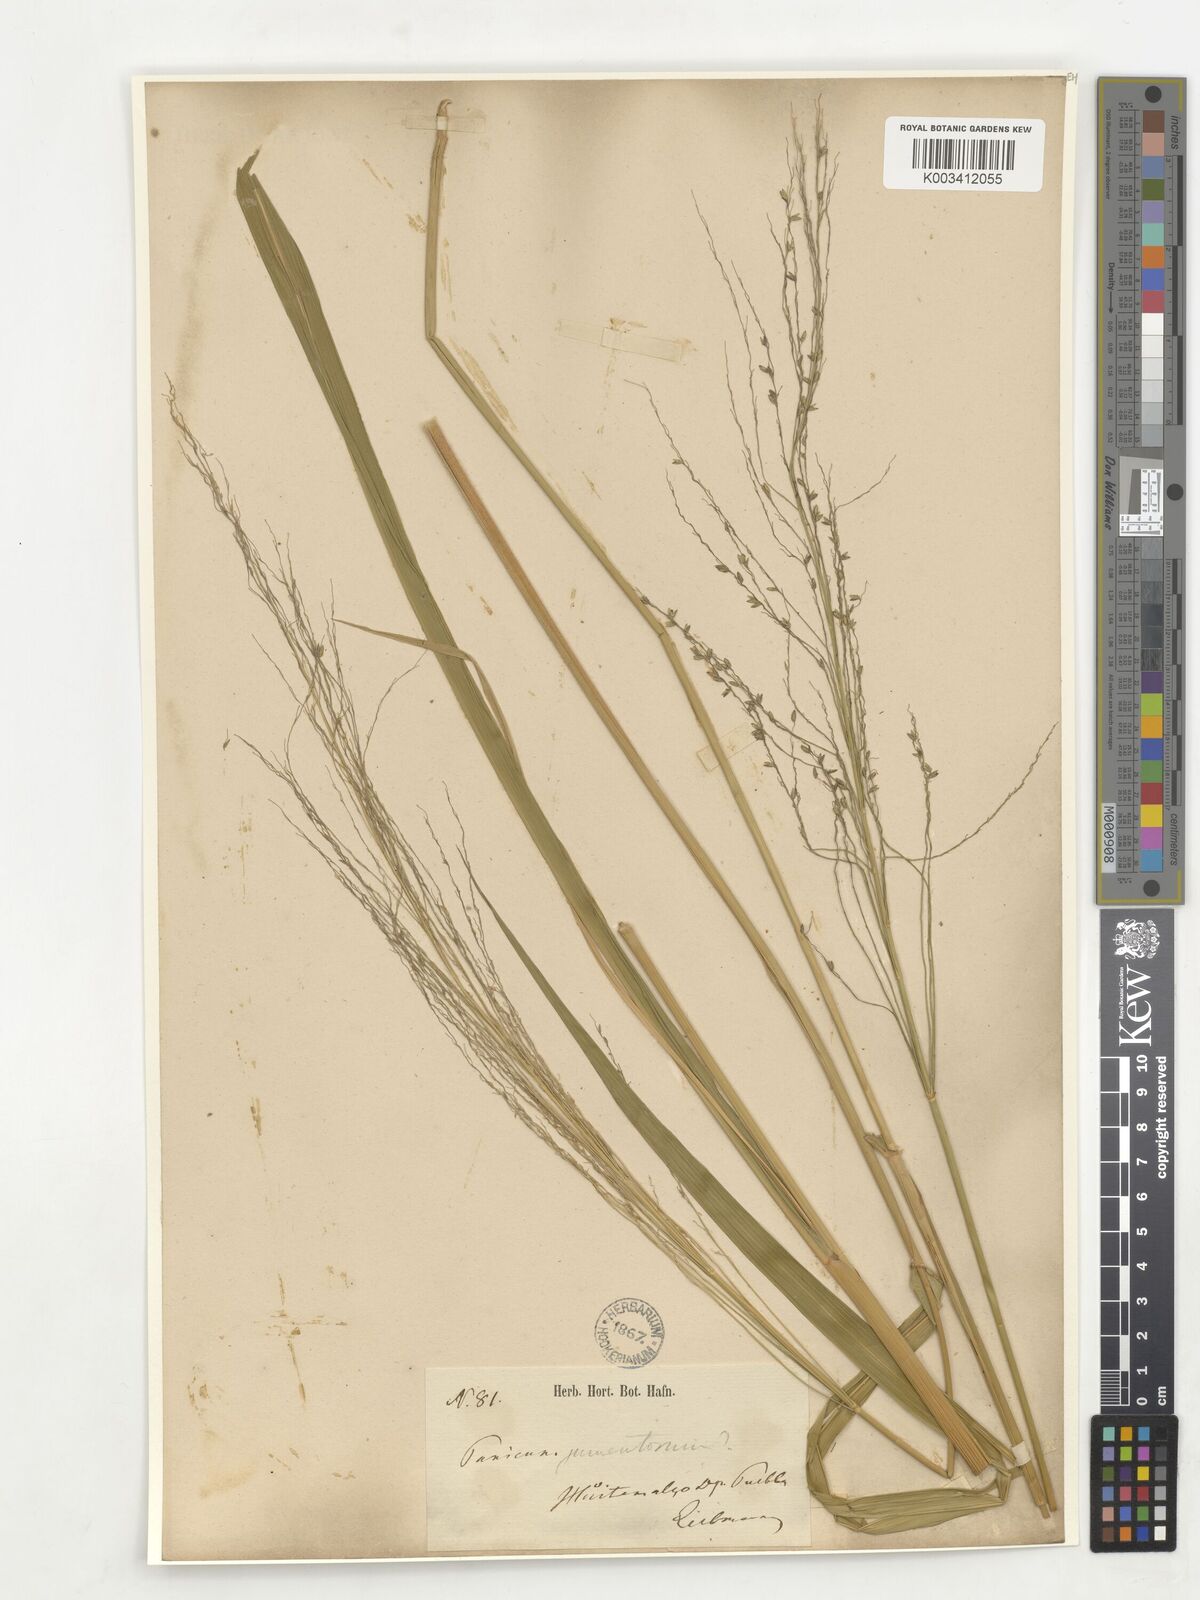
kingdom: Plantae
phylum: Tracheophyta
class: Liliopsida
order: Poales
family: Poaceae
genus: Megathyrsus
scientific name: Megathyrsus maximus
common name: Guineagrass
